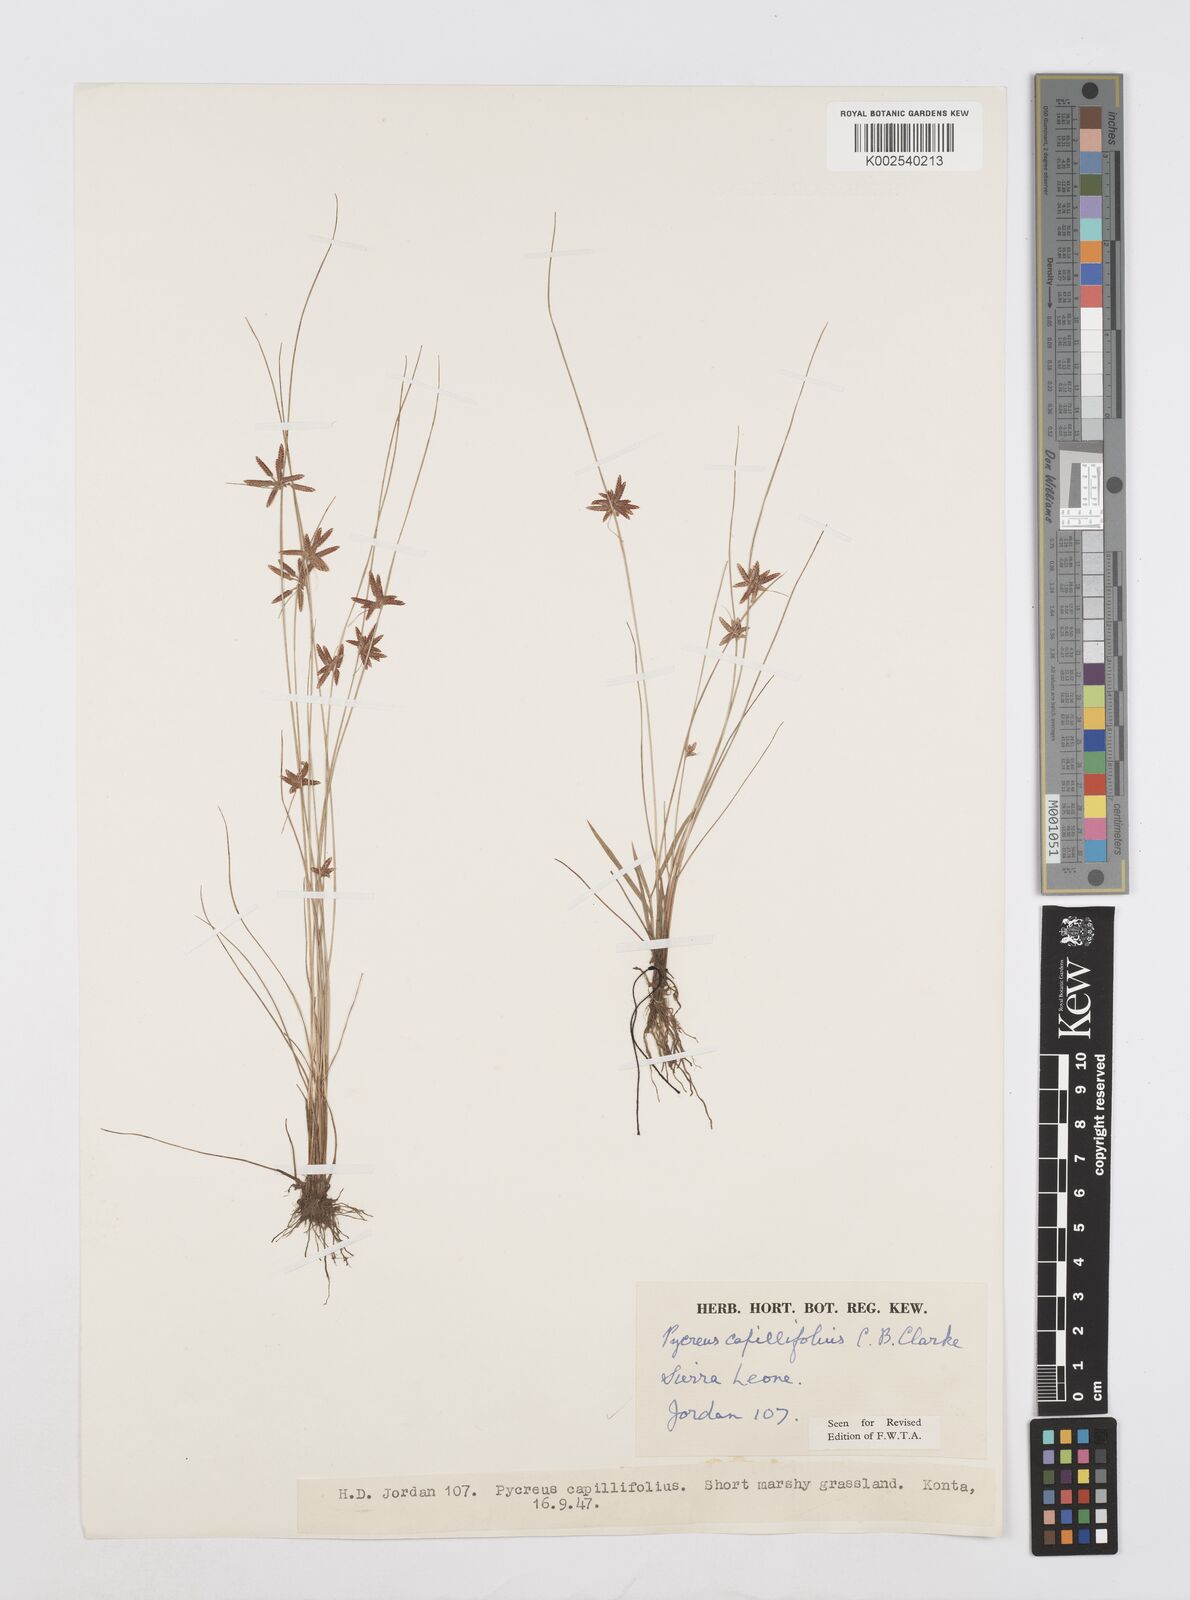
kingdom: Plantae
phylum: Tracheophyta
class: Liliopsida
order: Poales
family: Cyperaceae
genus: Cyperus
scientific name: Cyperus capillifolius
